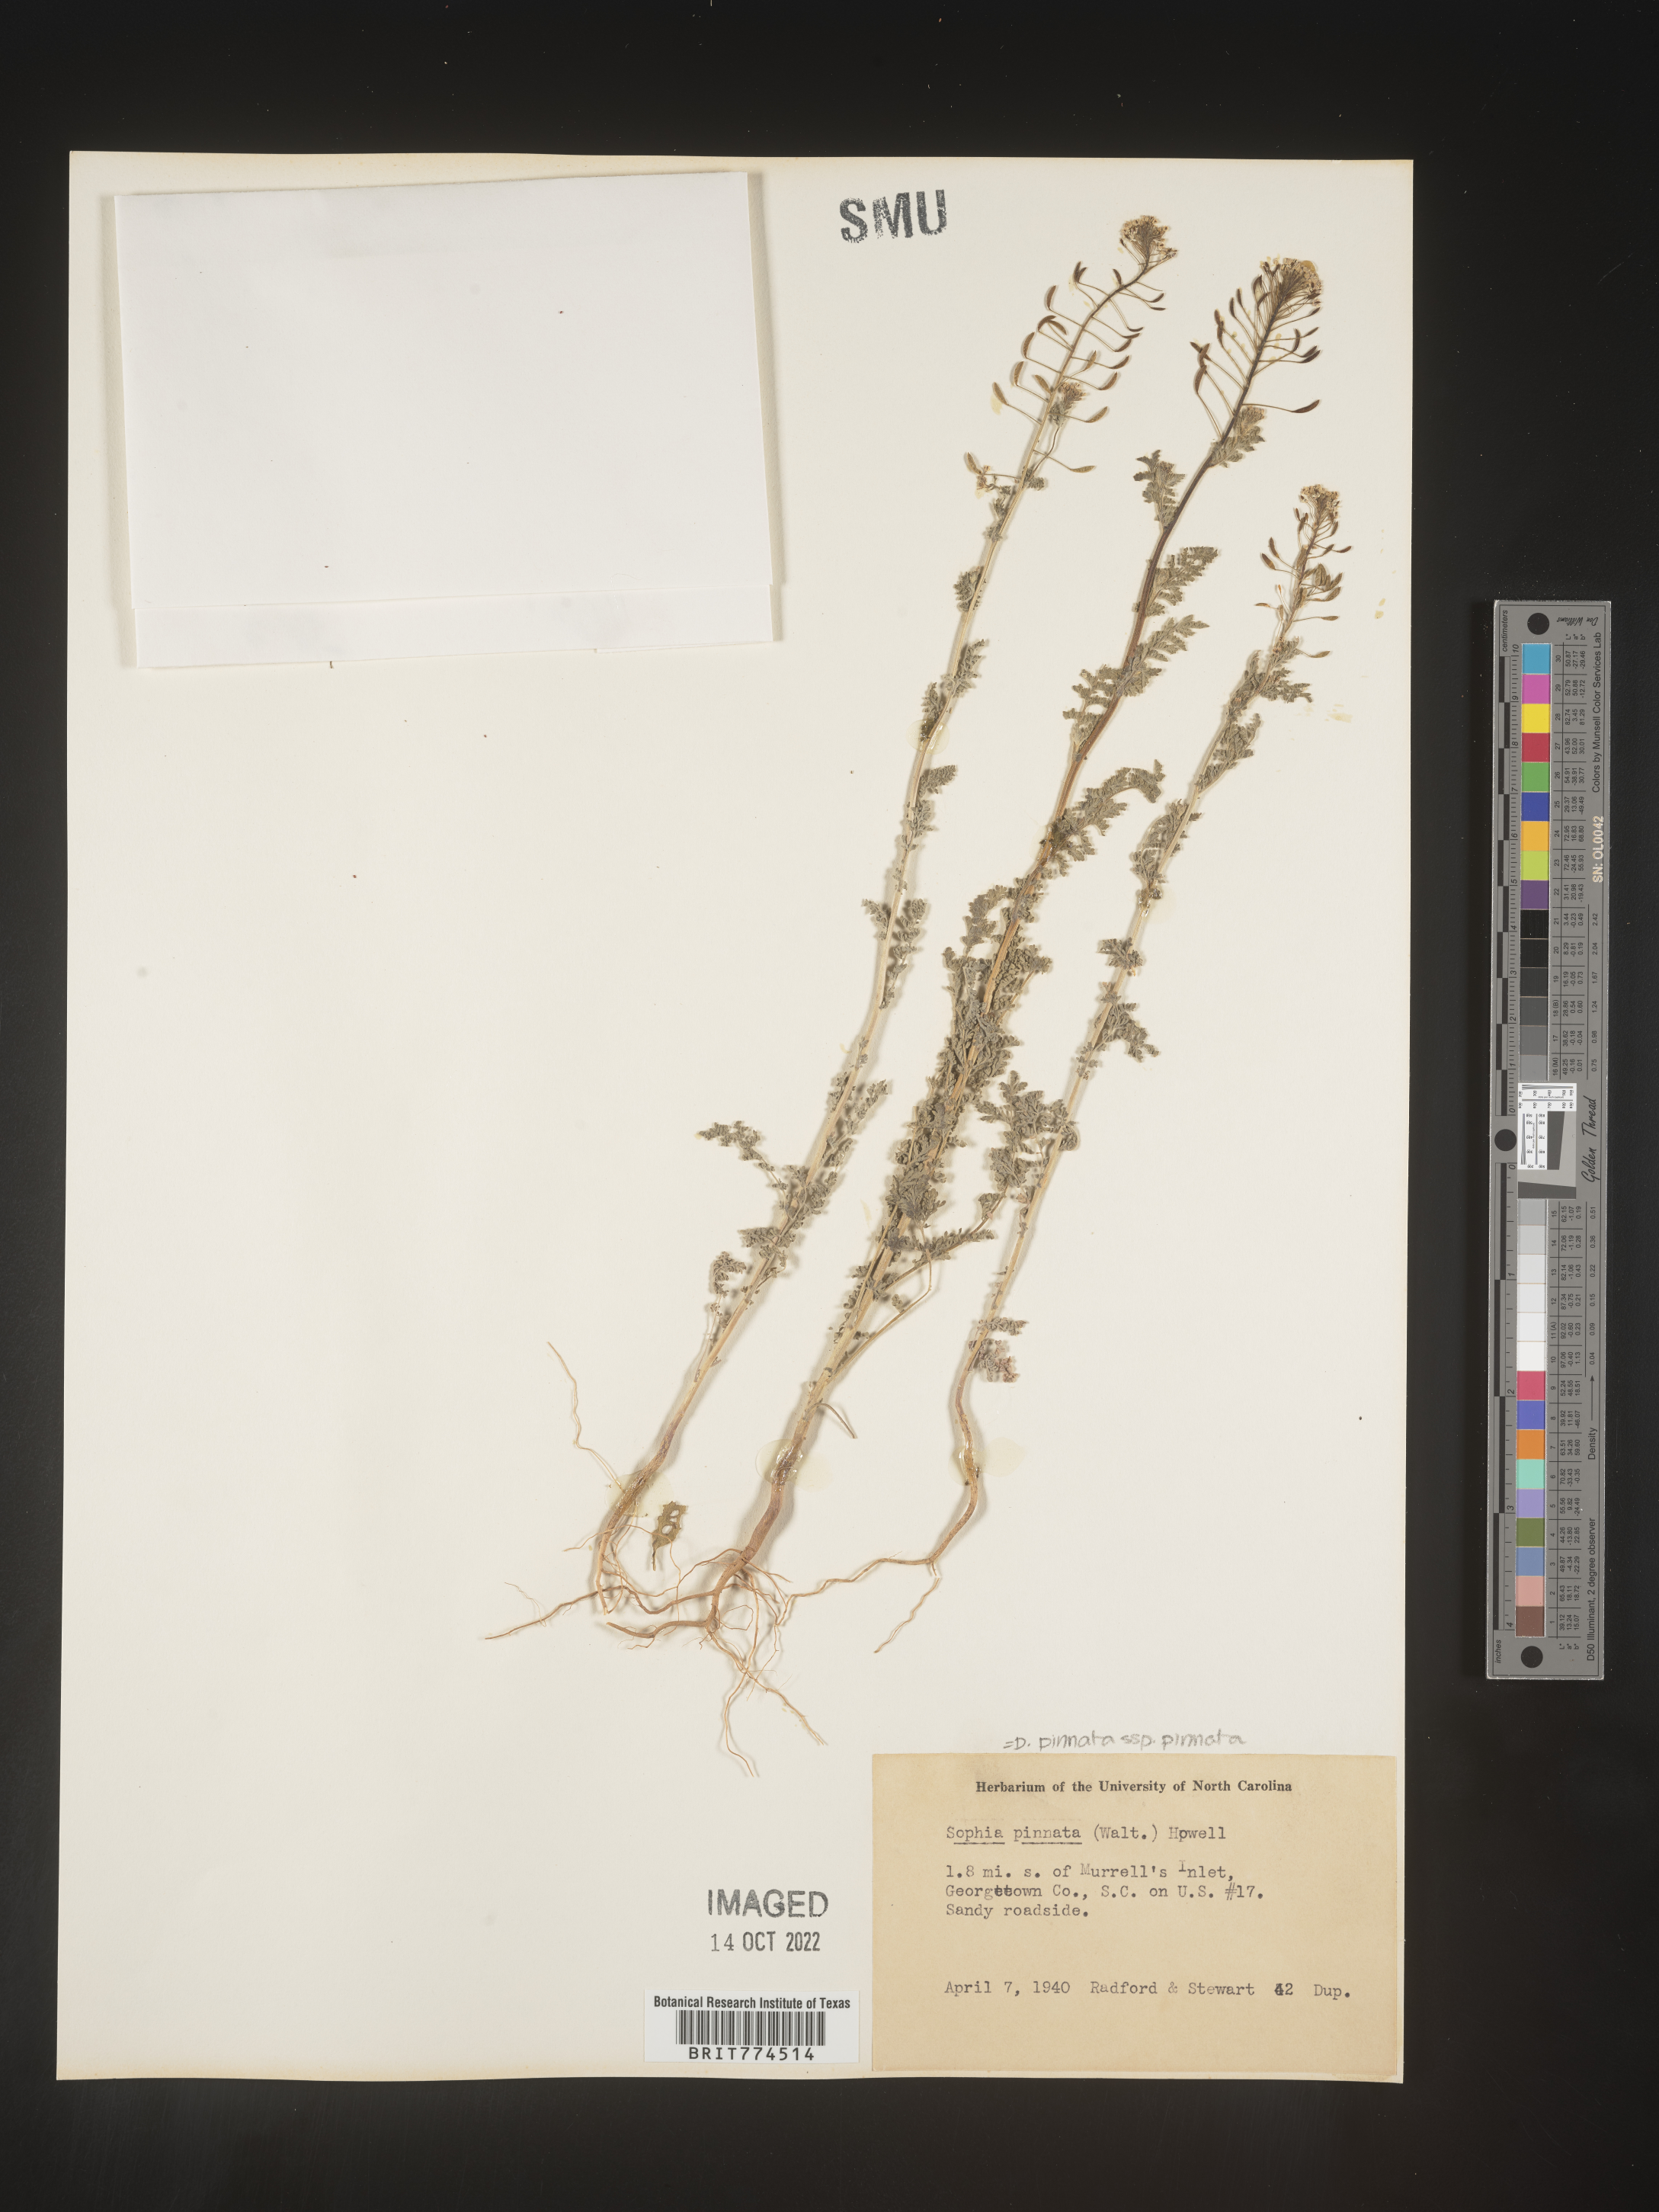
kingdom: Plantae
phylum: Tracheophyta
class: Magnoliopsida
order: Brassicales
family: Brassicaceae
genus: Descurainia
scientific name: Descurainia pinnata
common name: Western tansy mustard
